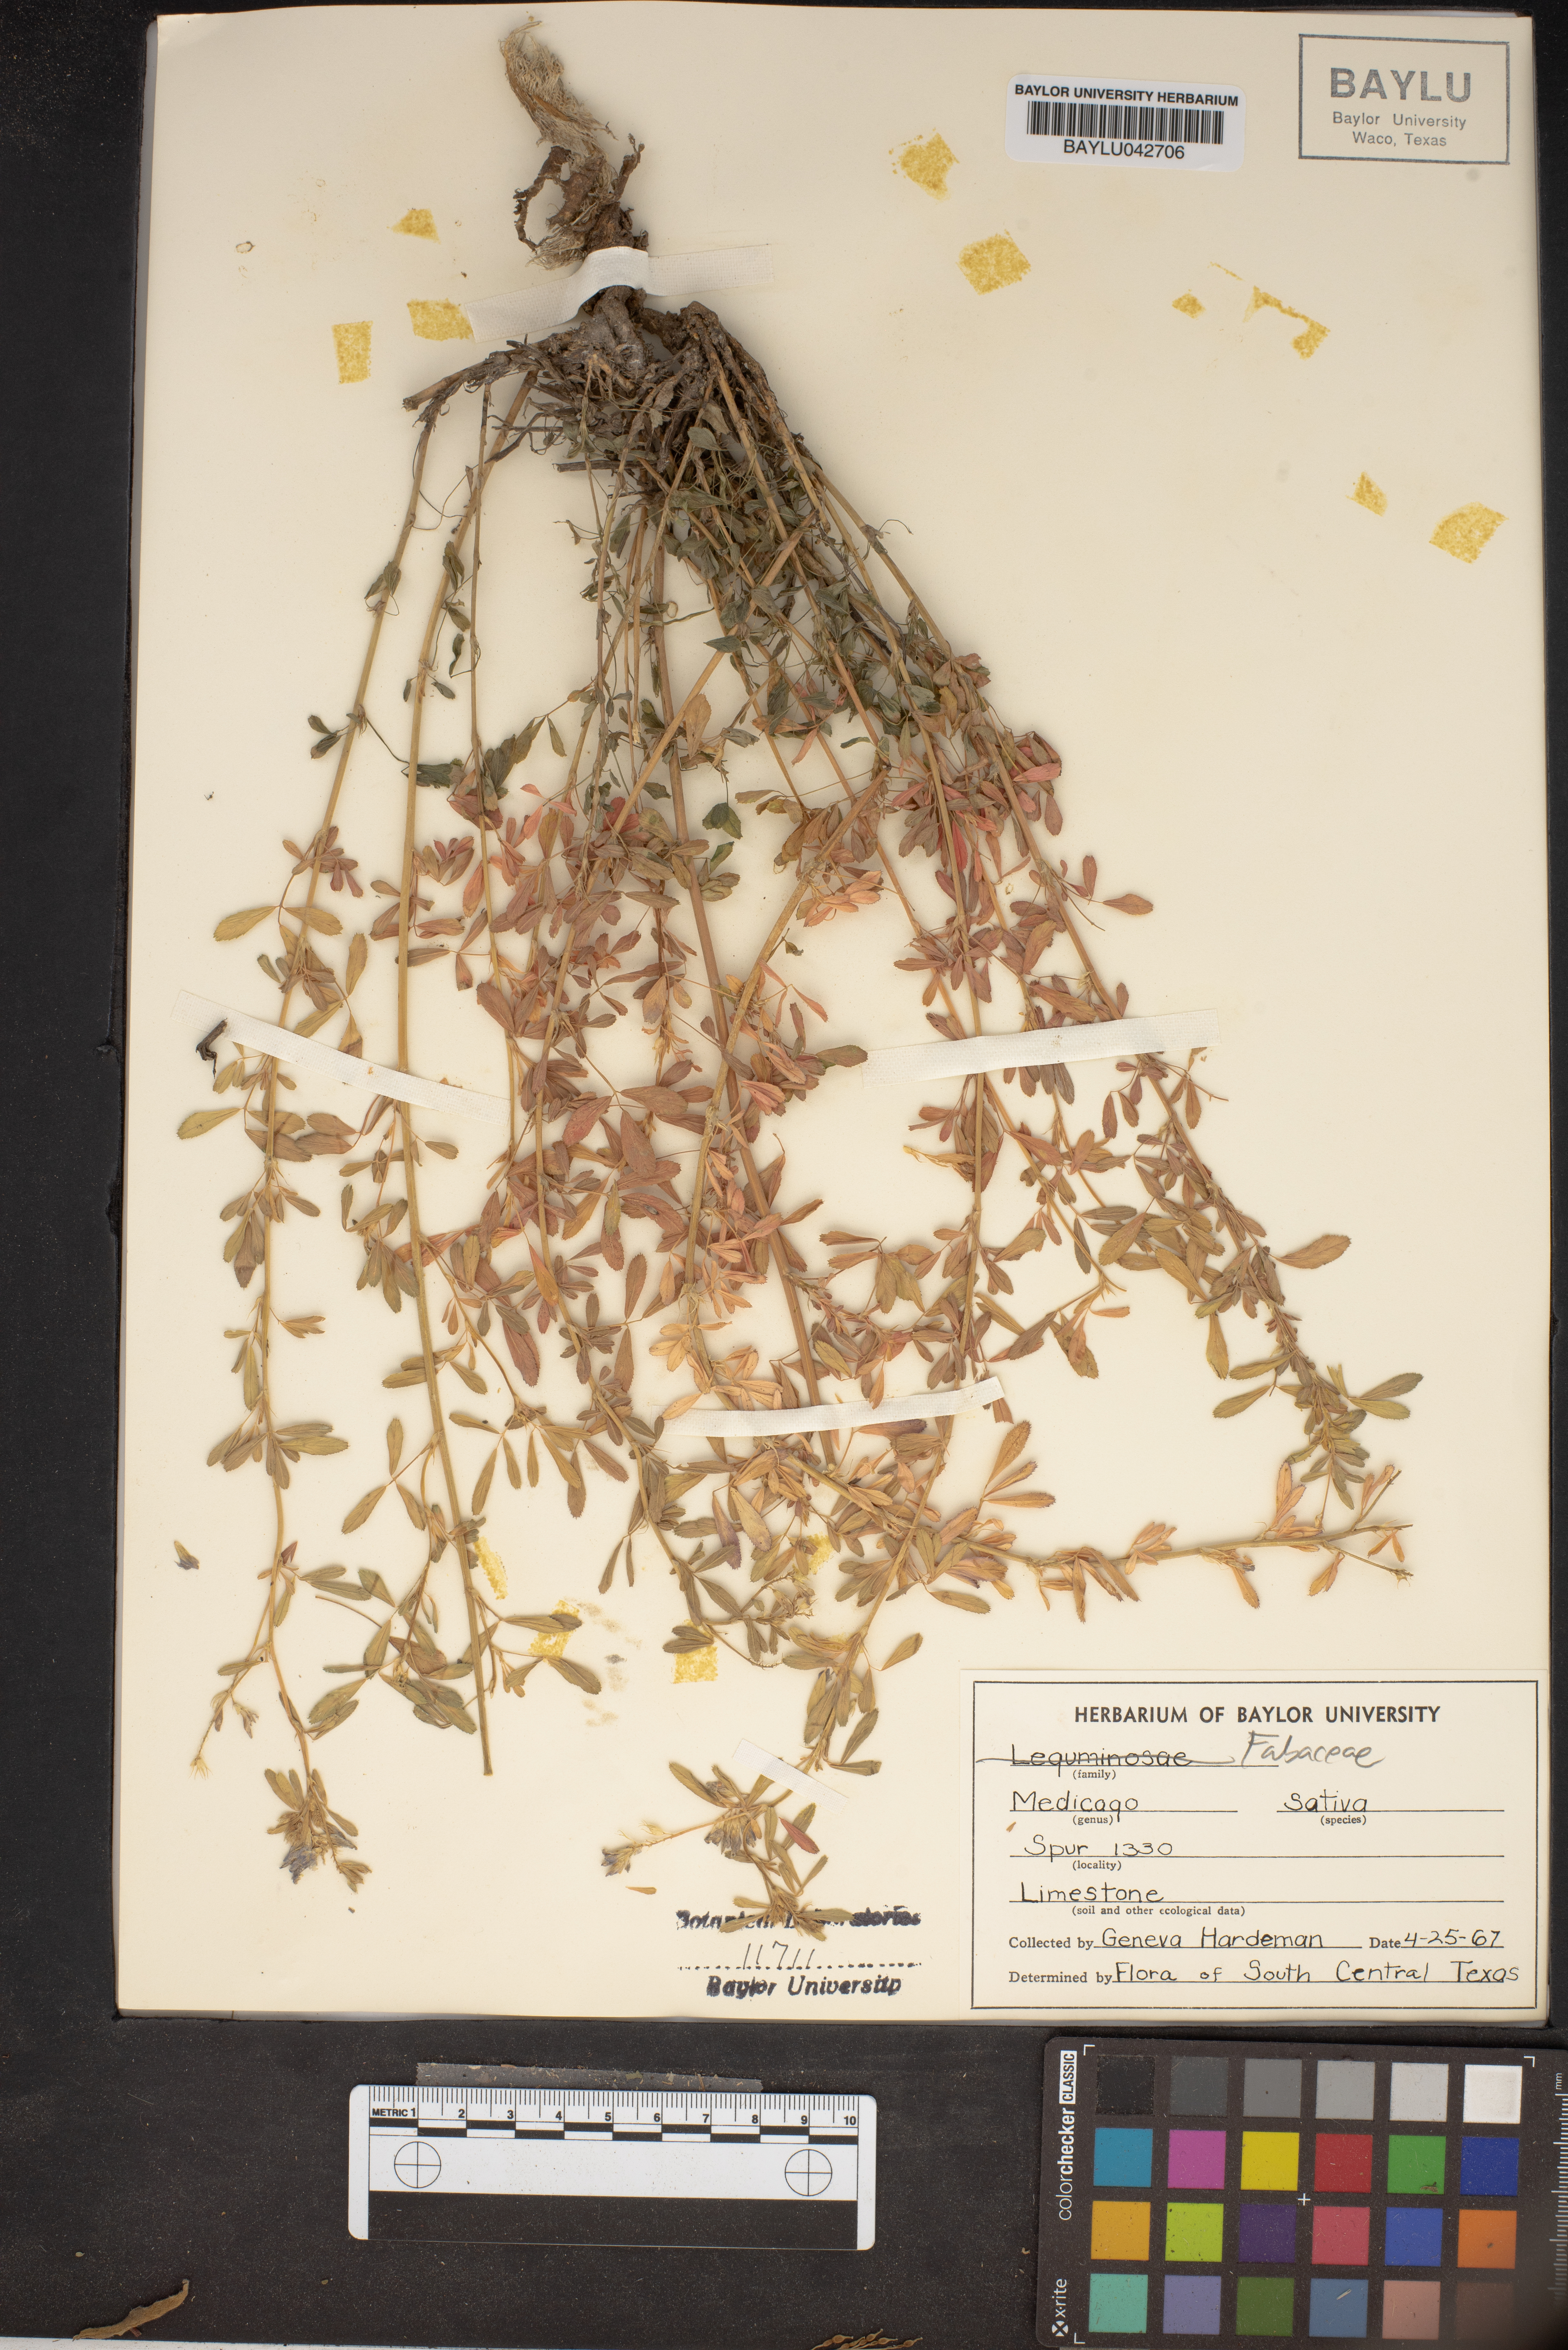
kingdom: Plantae
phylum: Tracheophyta
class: Magnoliopsida
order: Fabales
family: Fabaceae
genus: Medicago
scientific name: Medicago sativa
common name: Alfalfa
